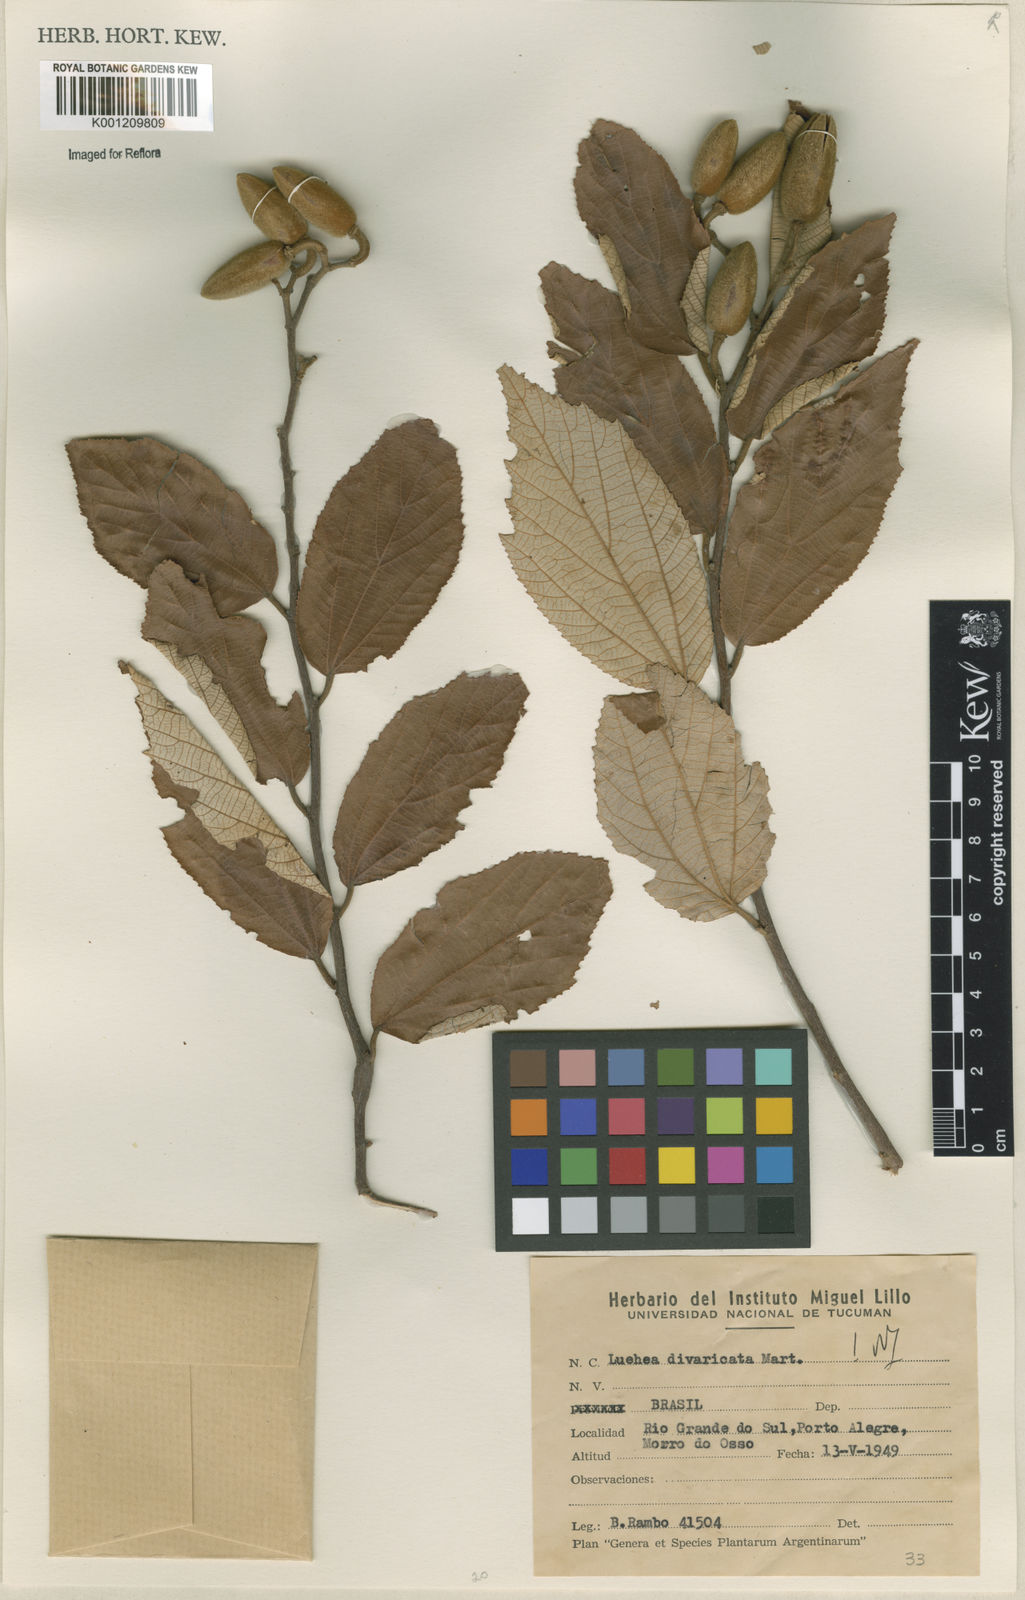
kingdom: Plantae
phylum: Tracheophyta
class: Magnoliopsida
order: Malvales
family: Malvaceae
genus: Luehea
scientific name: Luehea divaricata
